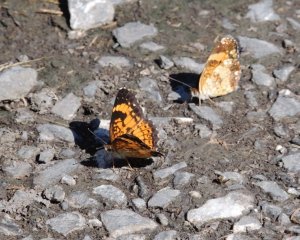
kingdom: Animalia
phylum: Arthropoda
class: Insecta
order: Lepidoptera
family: Nymphalidae
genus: Chlosyne
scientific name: Chlosyne nycteis
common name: Silvery Checkerspot
